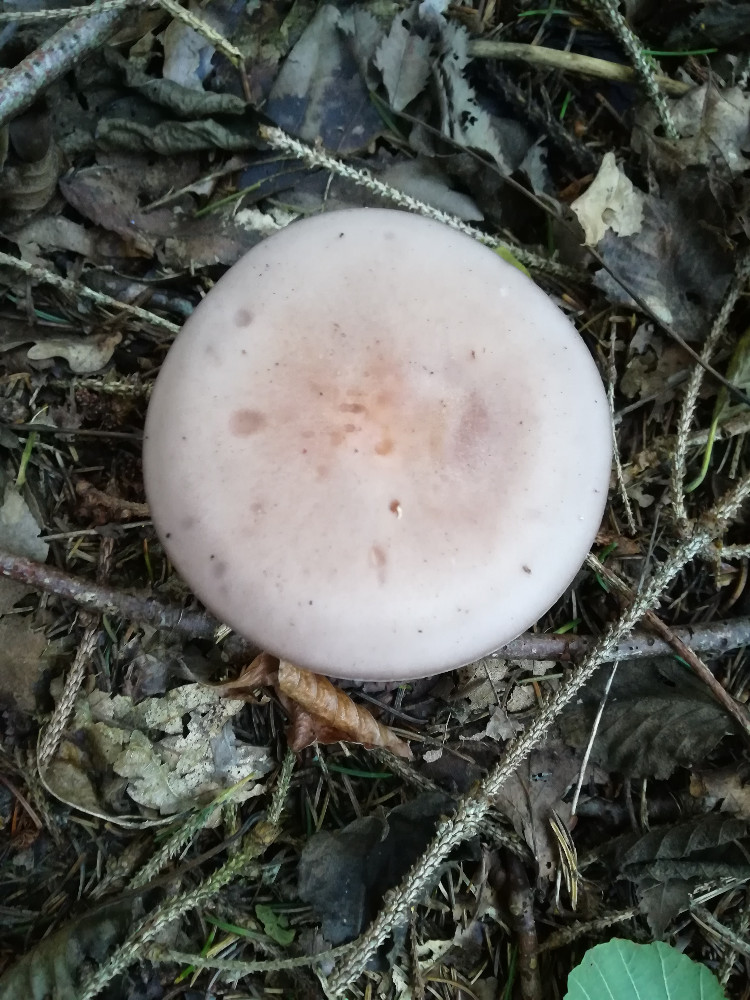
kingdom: Fungi
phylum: Basidiomycota
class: Agaricomycetes
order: Agaricales
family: Tricholomataceae
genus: Lepista
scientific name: Lepista nuda
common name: violet hekseringshat
